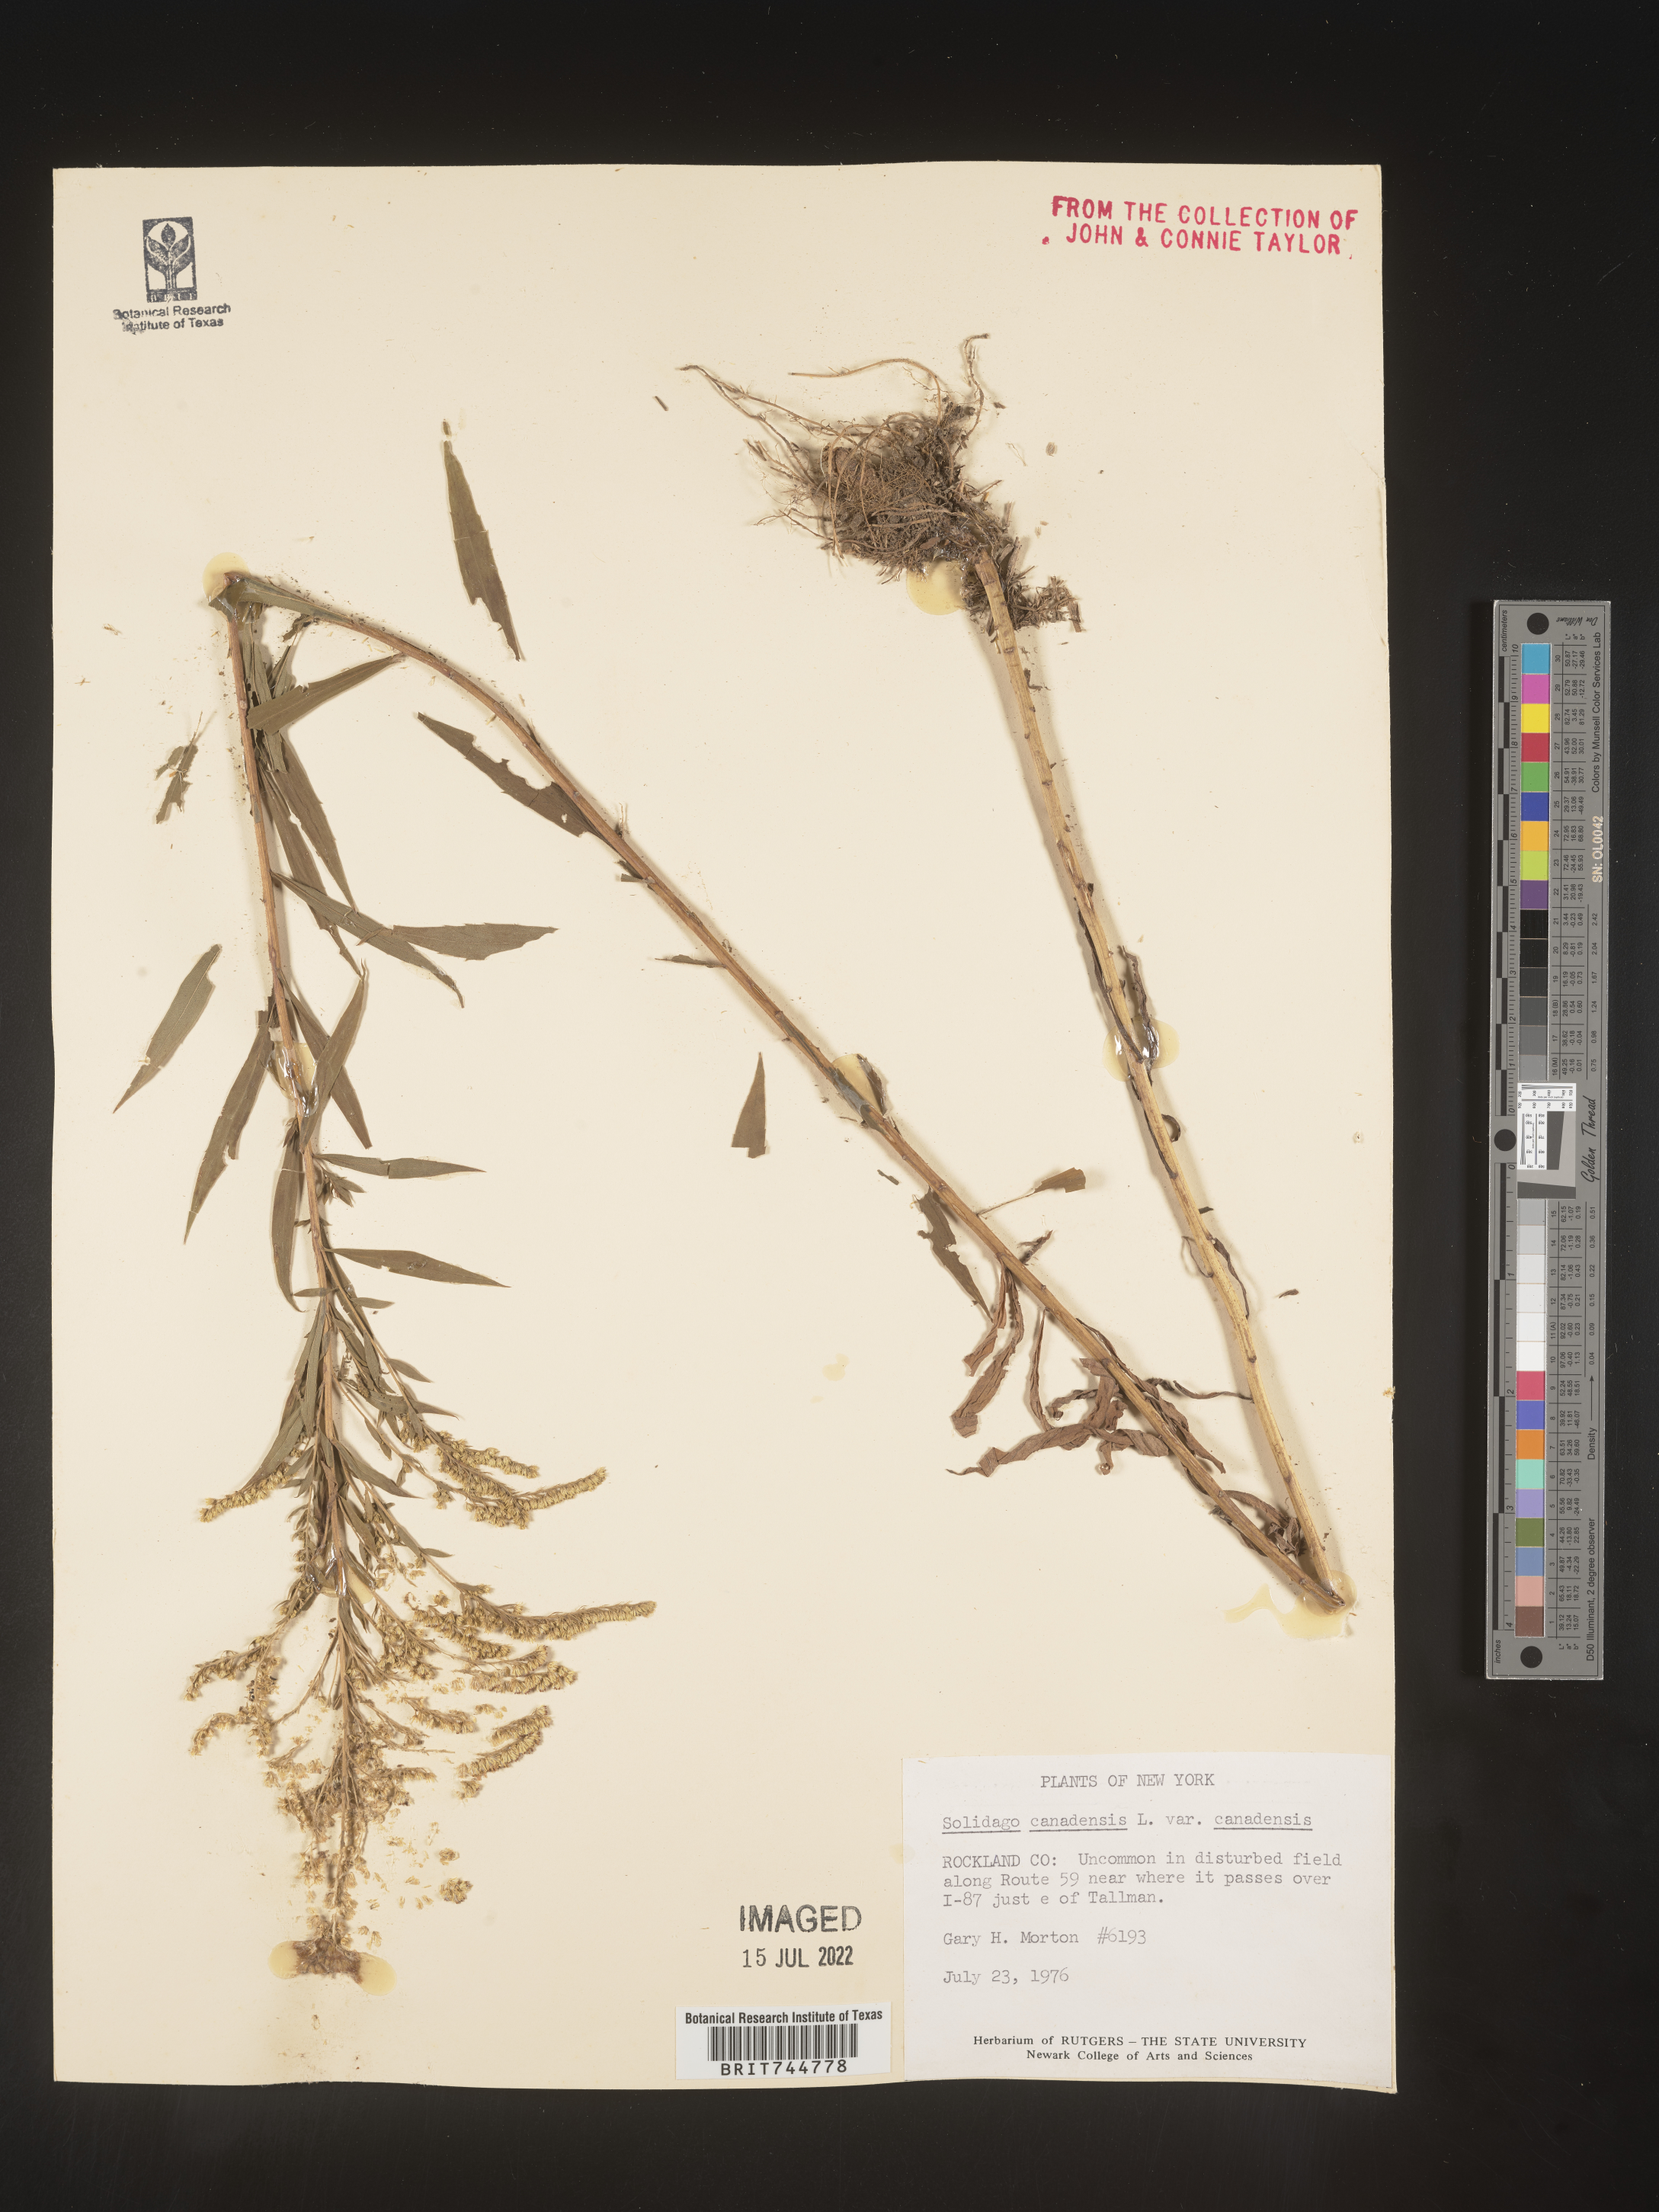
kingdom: Plantae
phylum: Tracheophyta
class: Magnoliopsida
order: Asterales
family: Asteraceae
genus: Solidago
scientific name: Solidago canadensis
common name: Canada goldenrod
